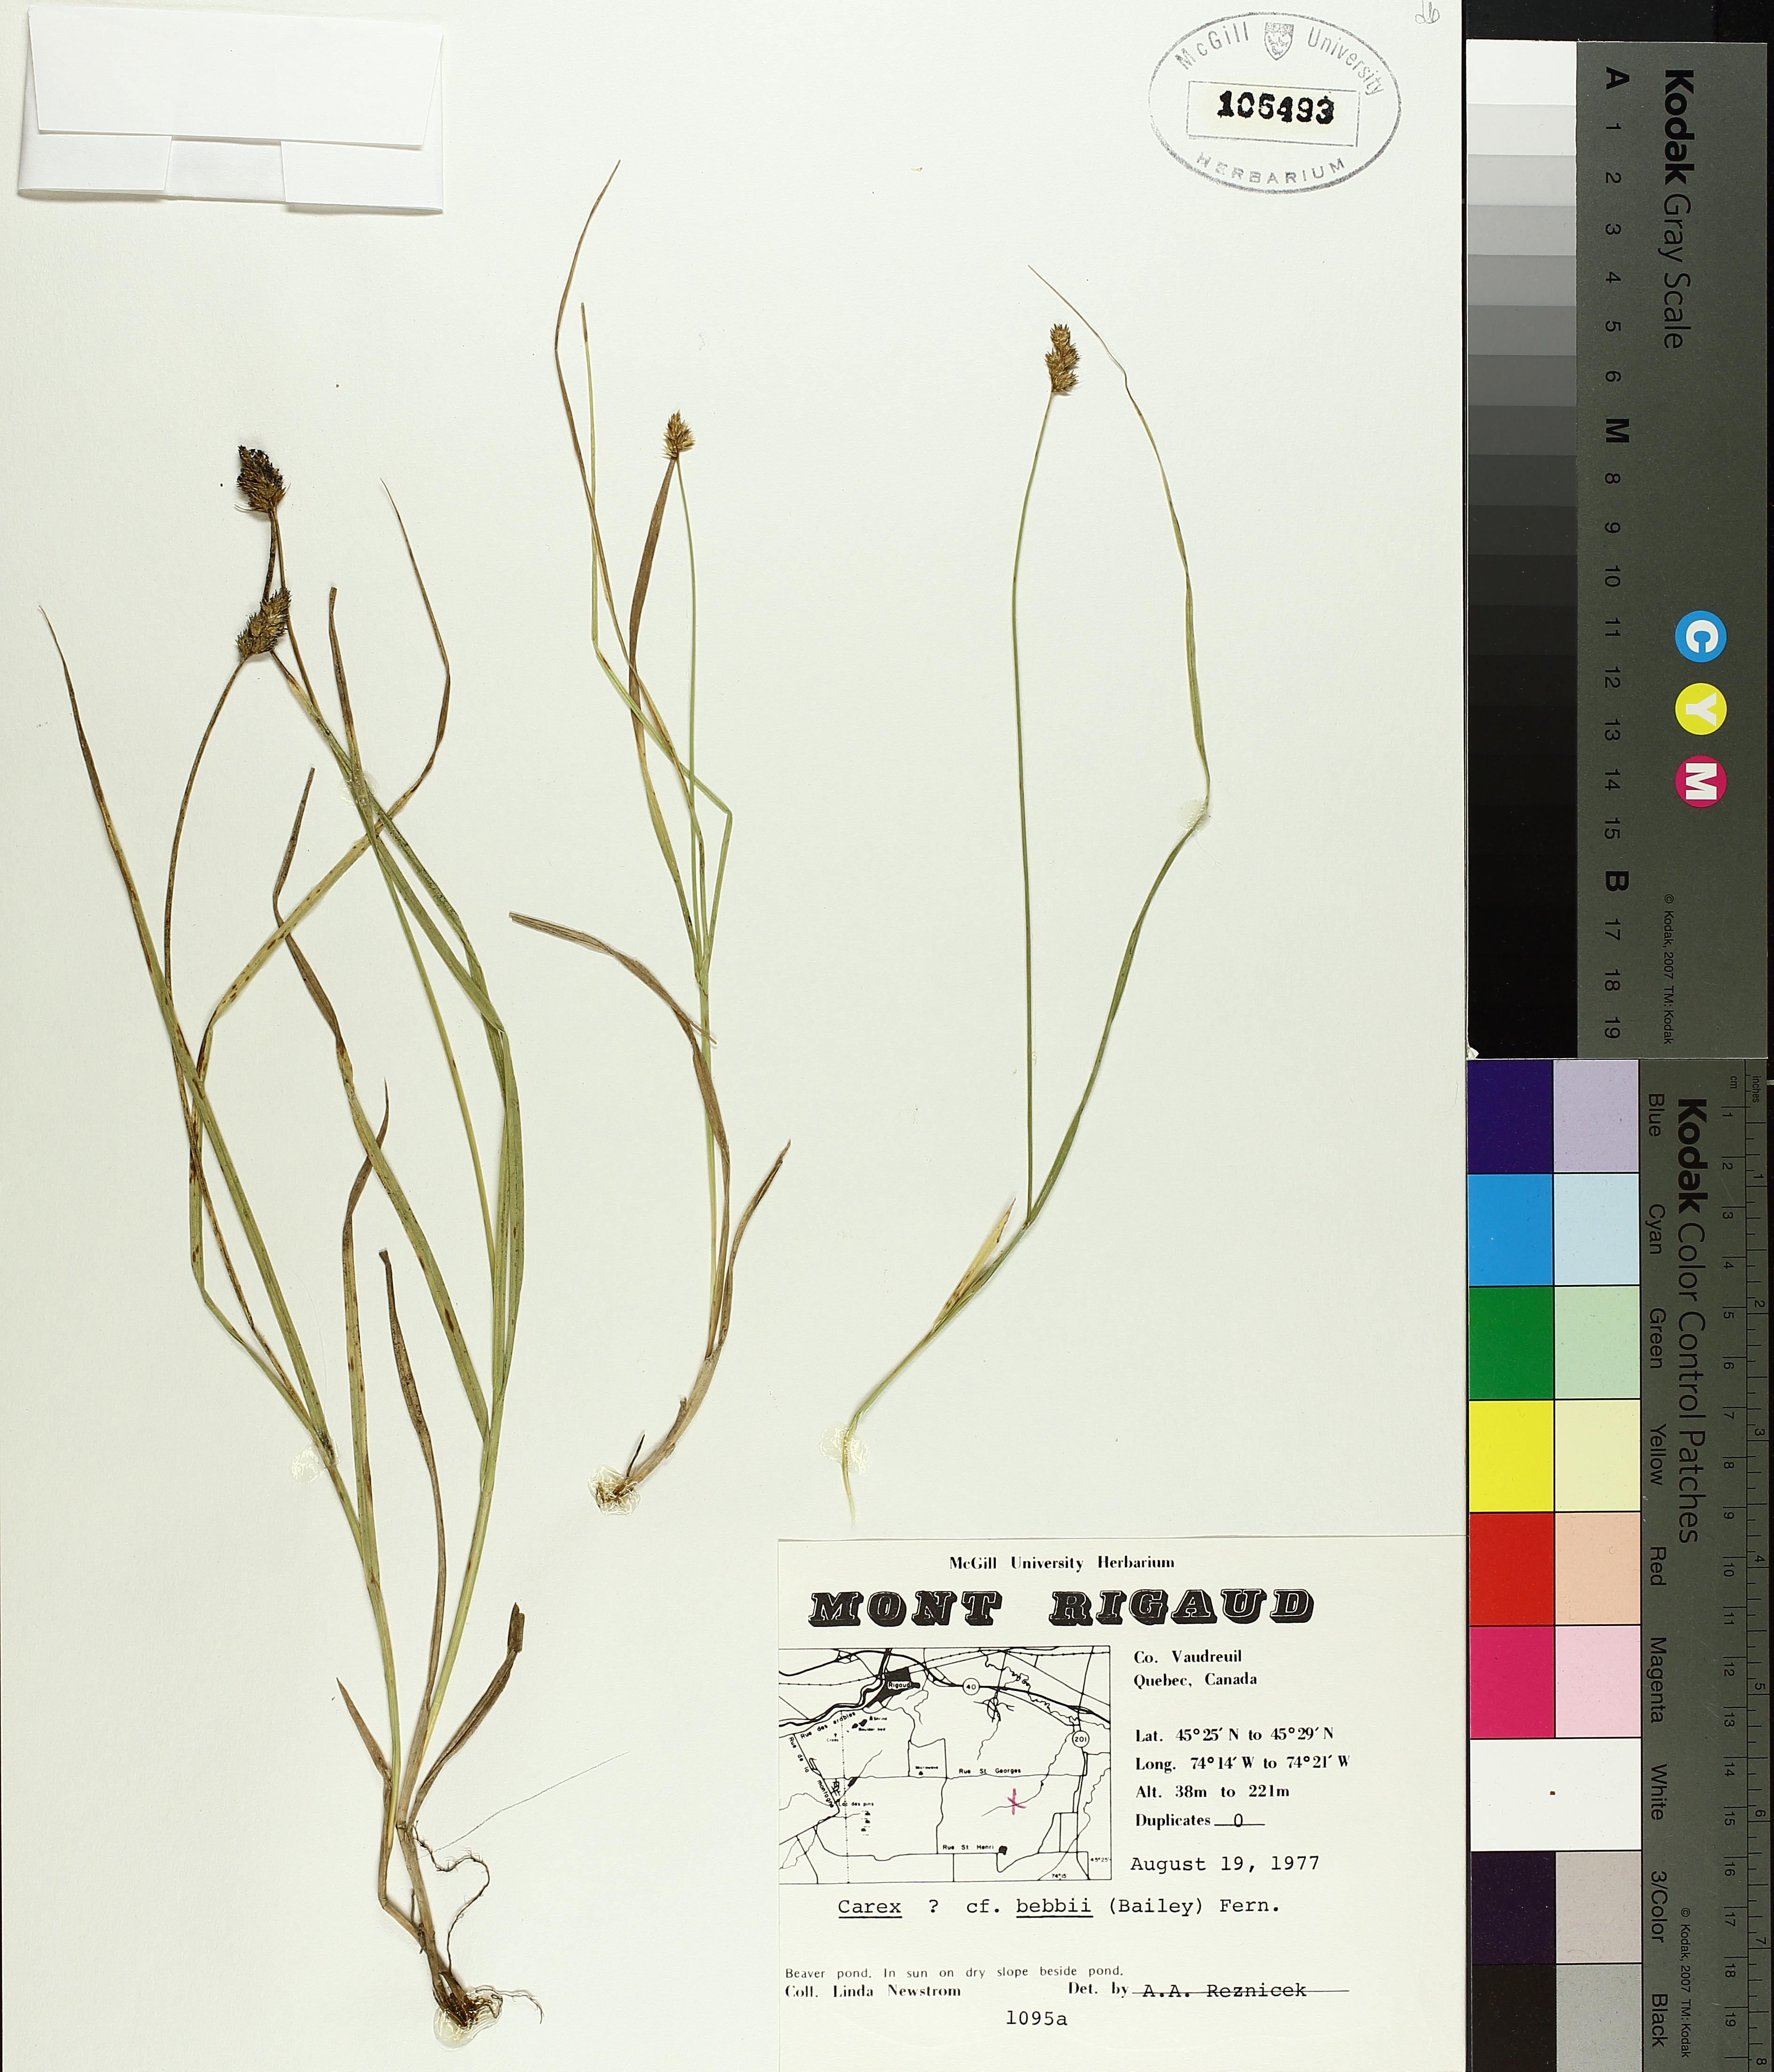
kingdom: Plantae
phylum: Tracheophyta
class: Liliopsida
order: Poales
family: Cyperaceae
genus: Carex
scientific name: Carex bebbii
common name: Bebb's sedge
